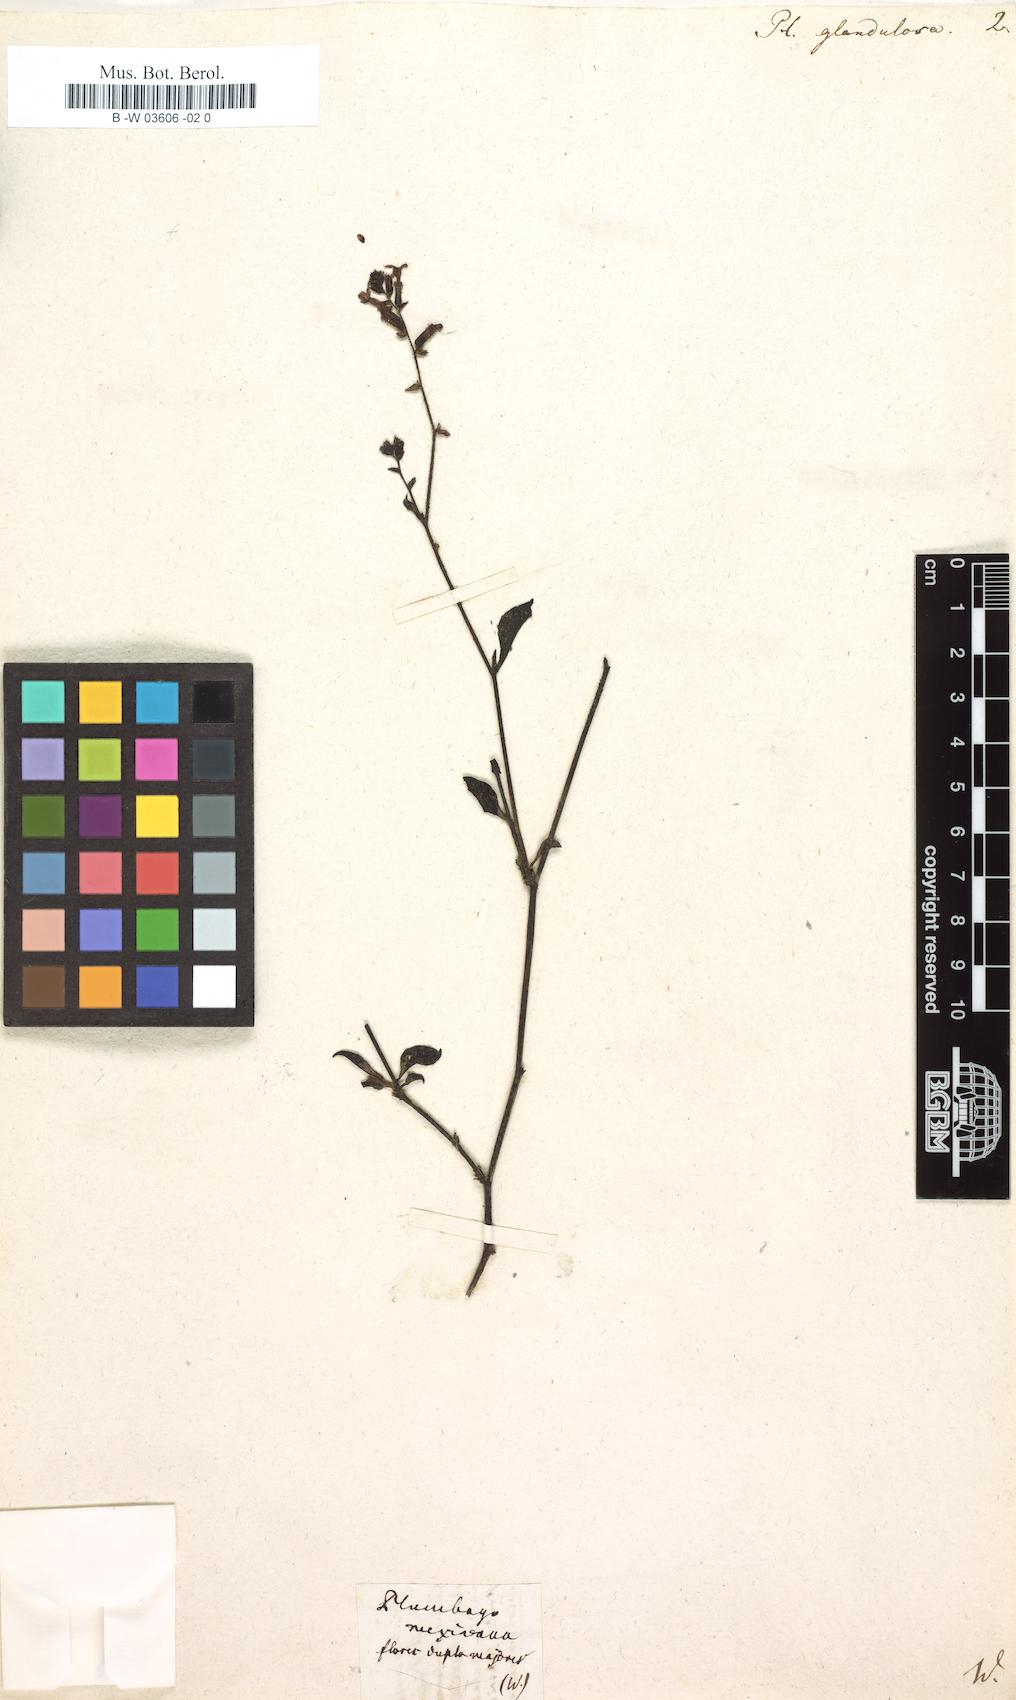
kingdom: Plantae
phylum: Tracheophyta
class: Magnoliopsida
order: Caryophyllales
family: Plumbaginaceae
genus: Plumbago
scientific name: Plumbago caerulea
